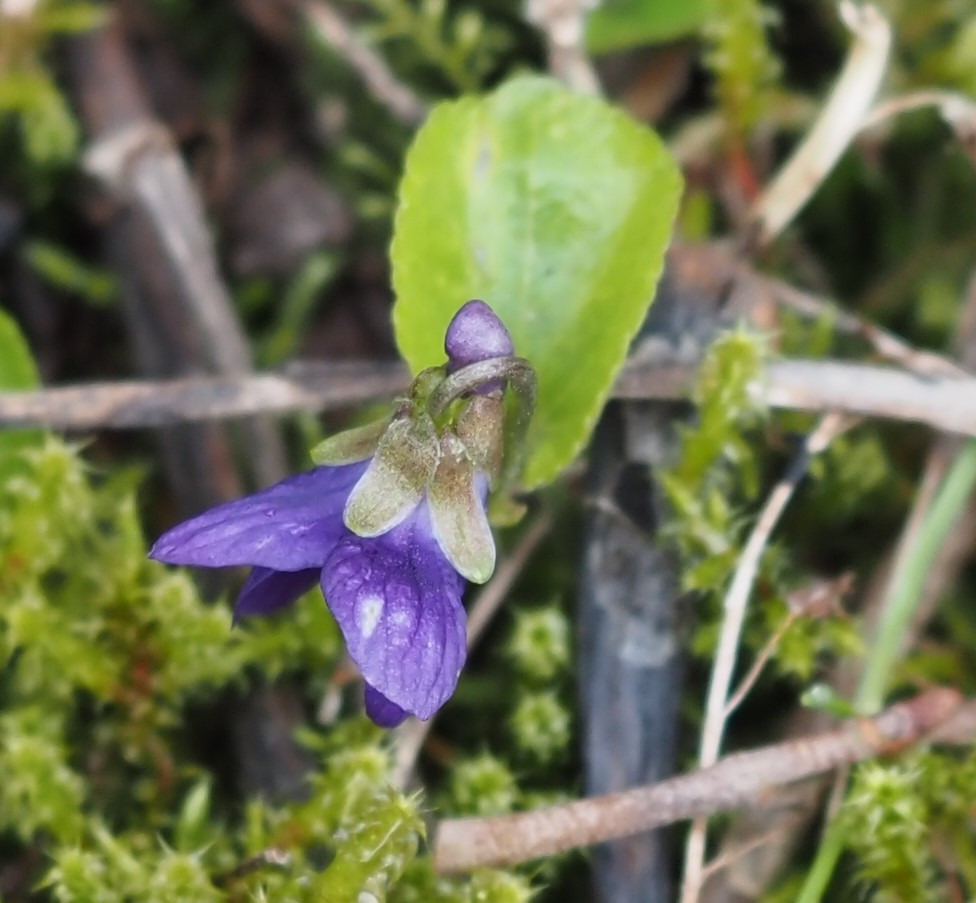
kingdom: Plantae
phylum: Tracheophyta
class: Magnoliopsida
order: Malpighiales
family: Violaceae
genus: Viola
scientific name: Viola odorata
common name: Marts-viol
